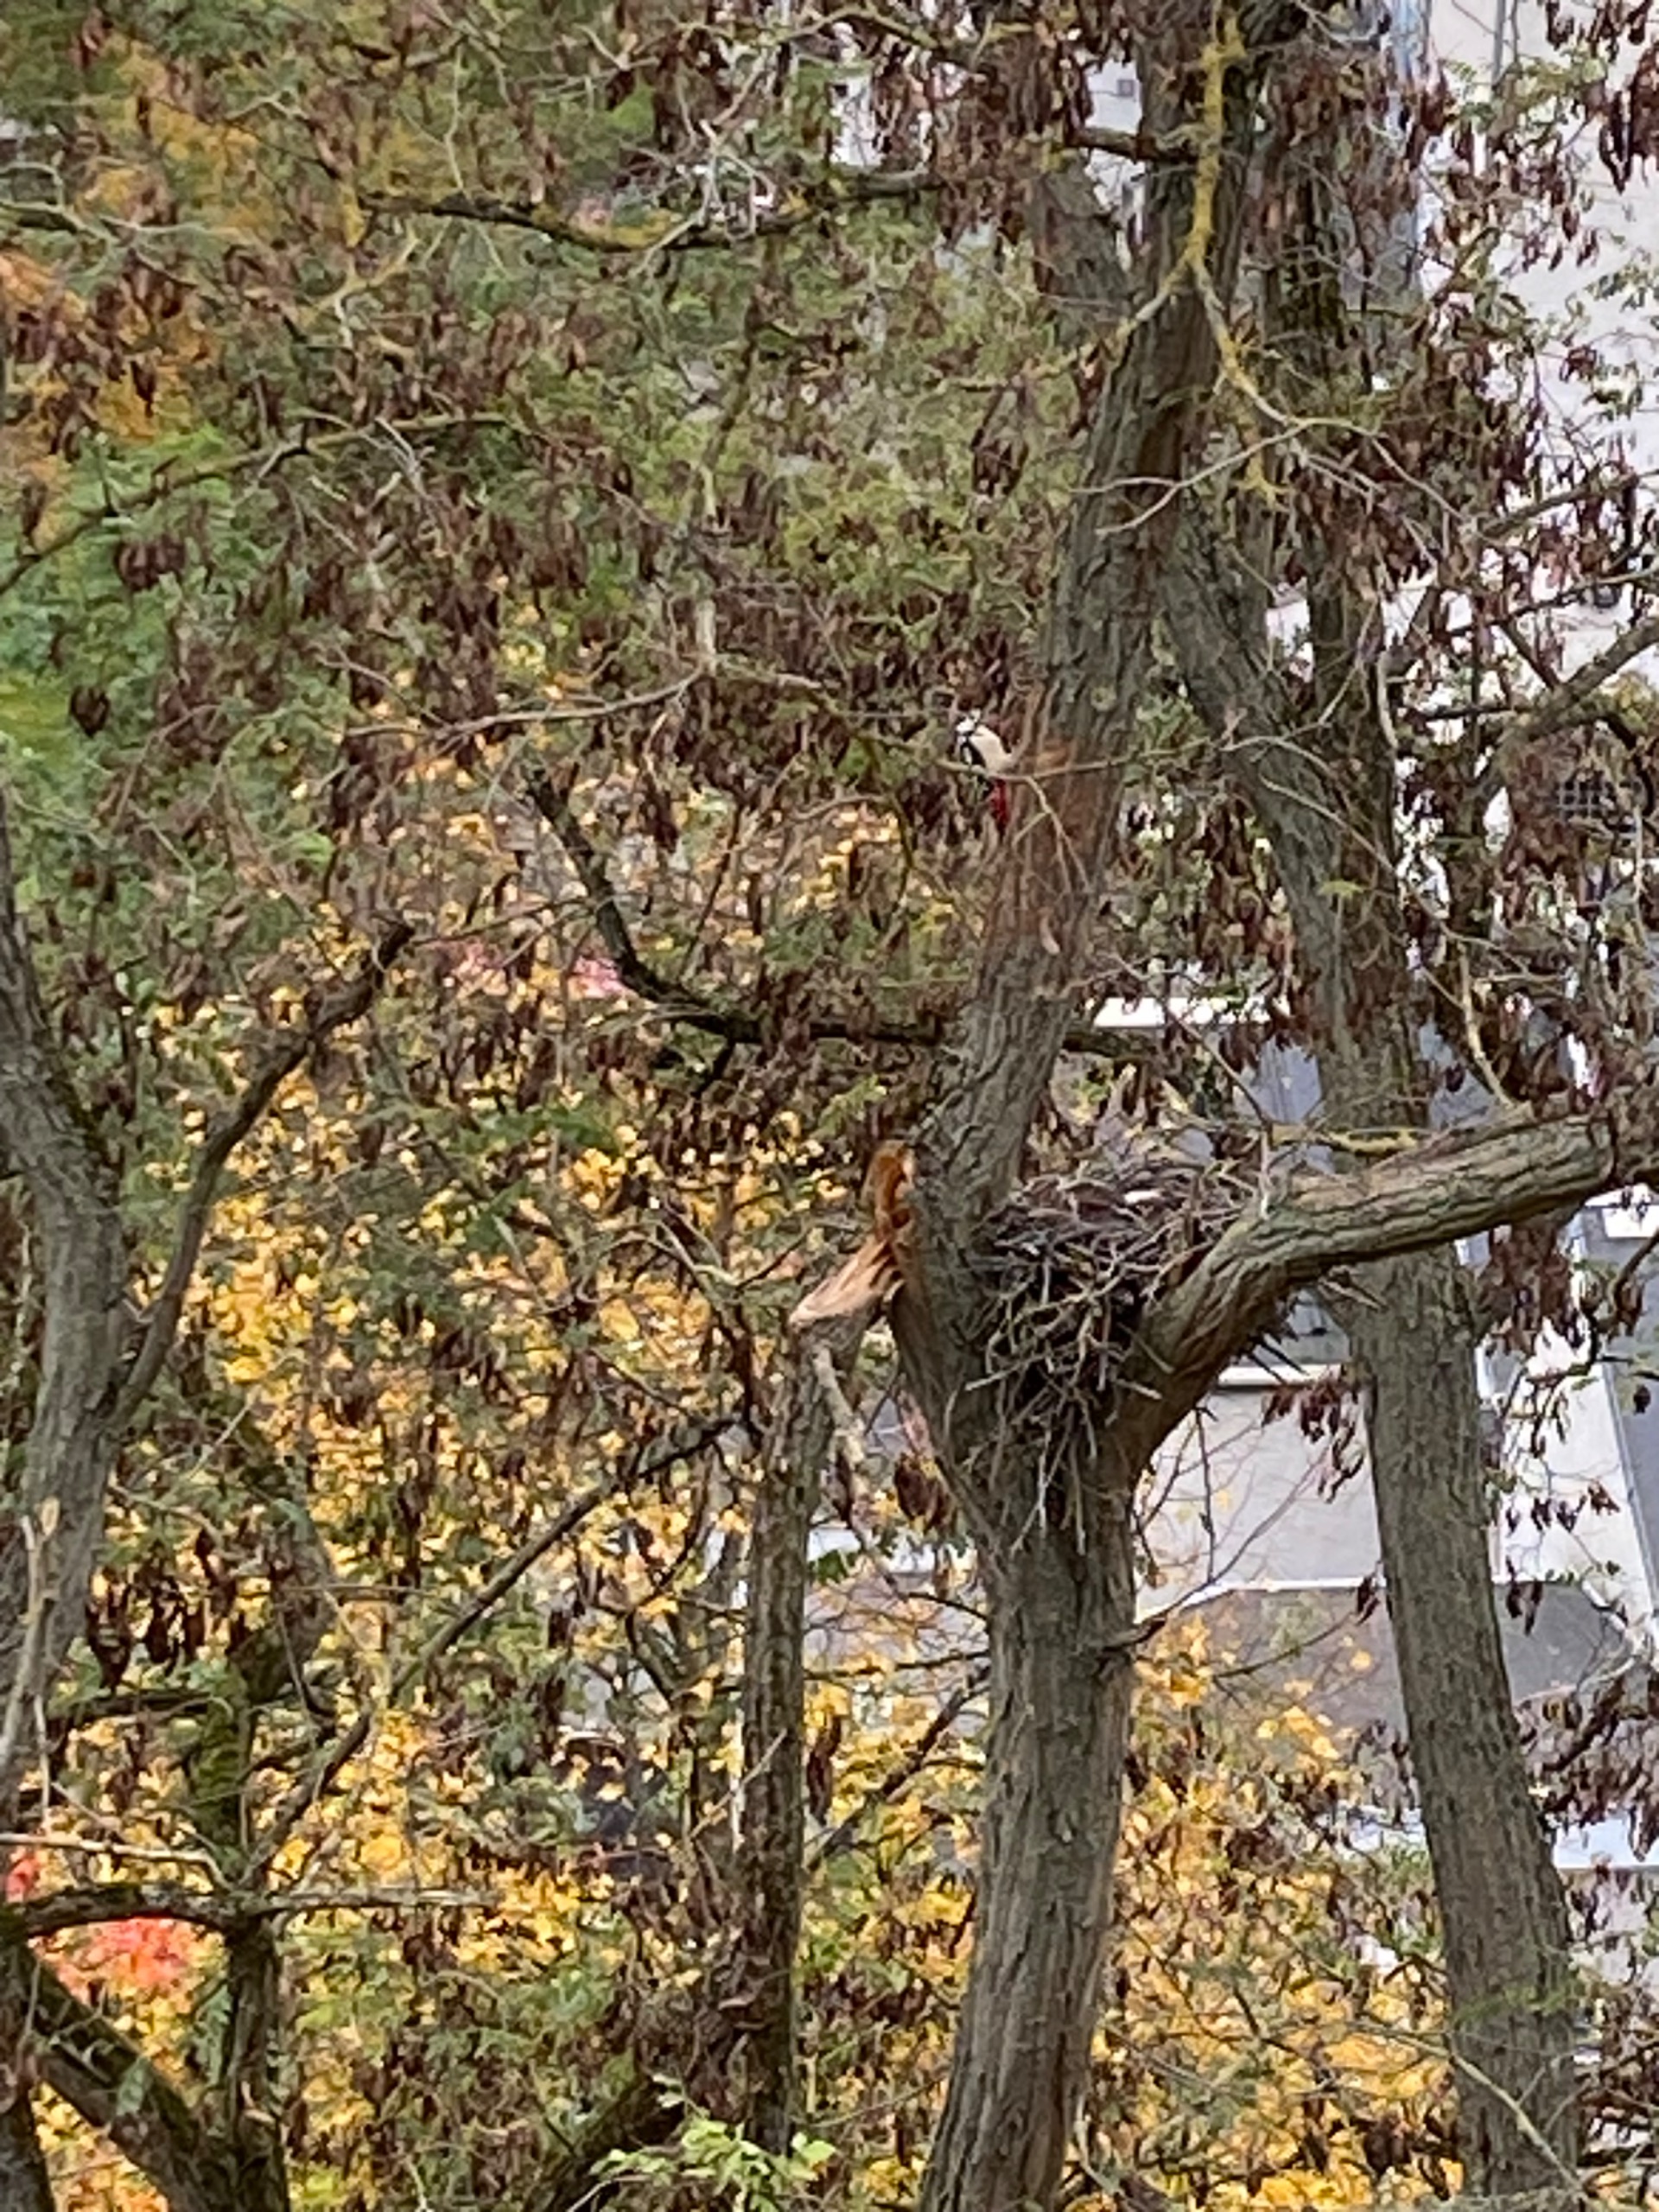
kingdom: Animalia
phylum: Chordata
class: Aves
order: Piciformes
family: Picidae
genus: Dendrocopos
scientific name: Dendrocopos major
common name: Stor flagspætte
